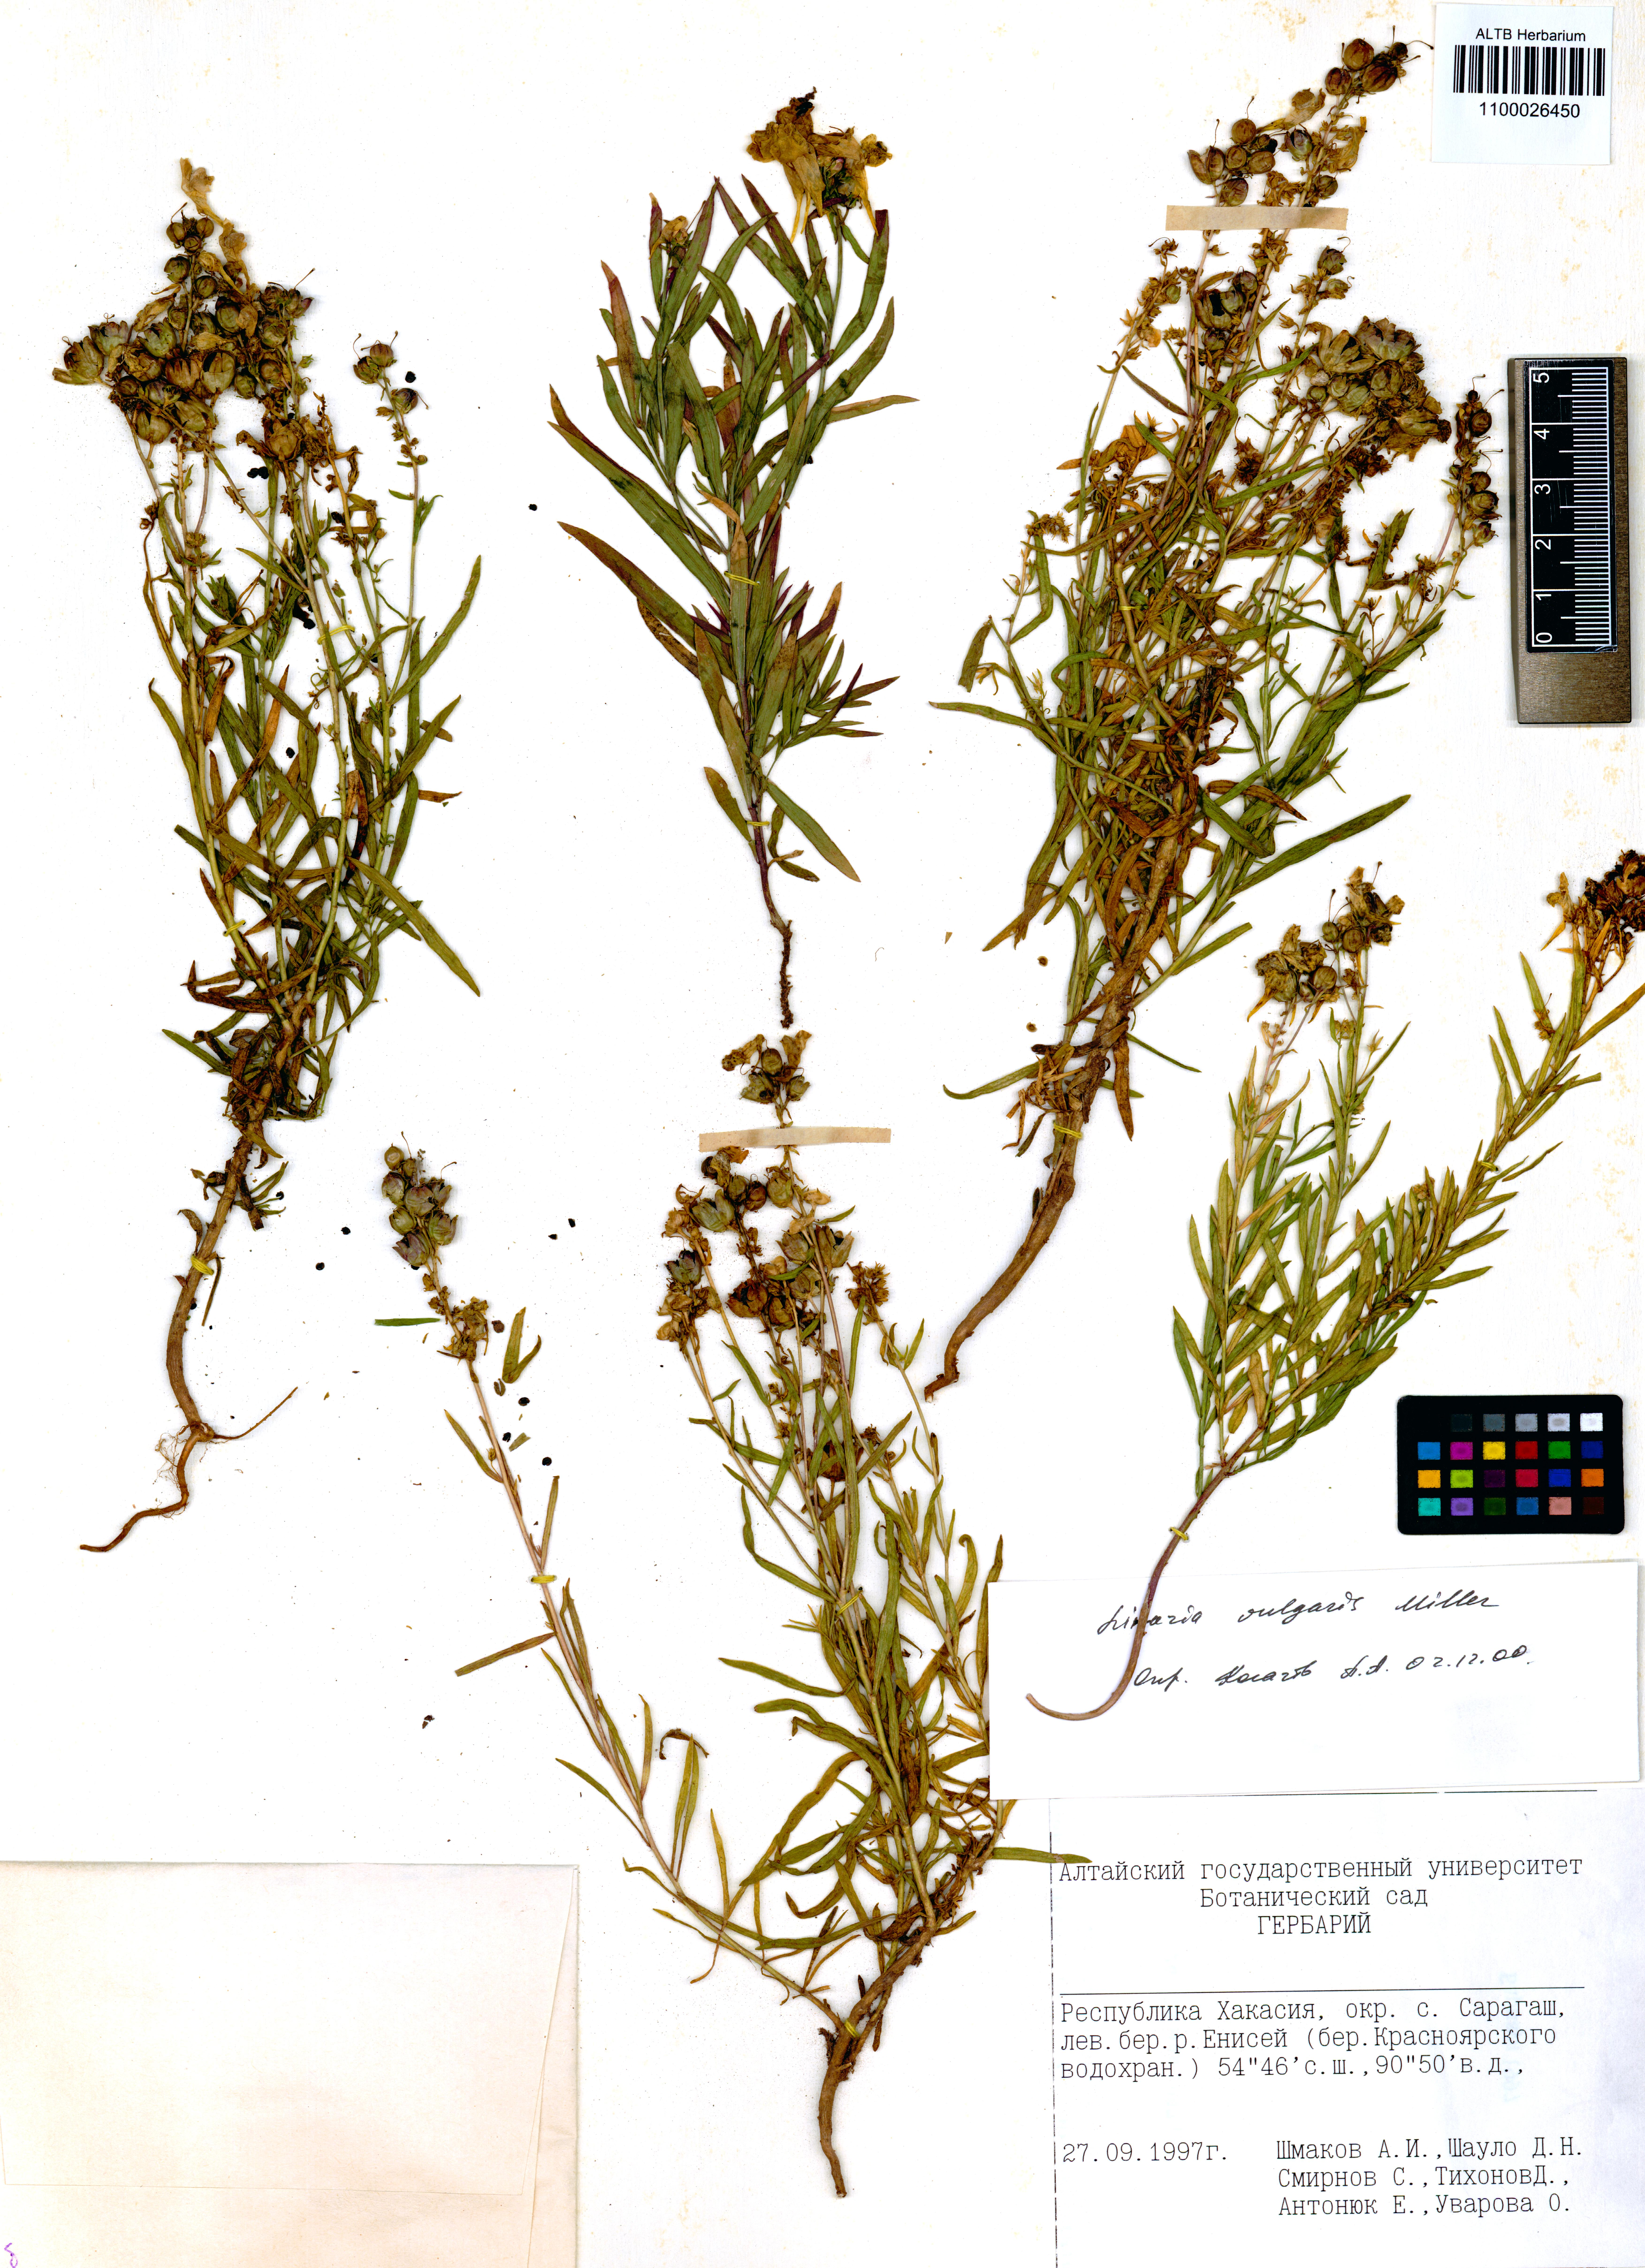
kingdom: Plantae
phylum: Tracheophyta
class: Magnoliopsida
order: Lamiales
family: Plantaginaceae
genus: Linaria
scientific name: Linaria vulgaris
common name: Butter and eggs
